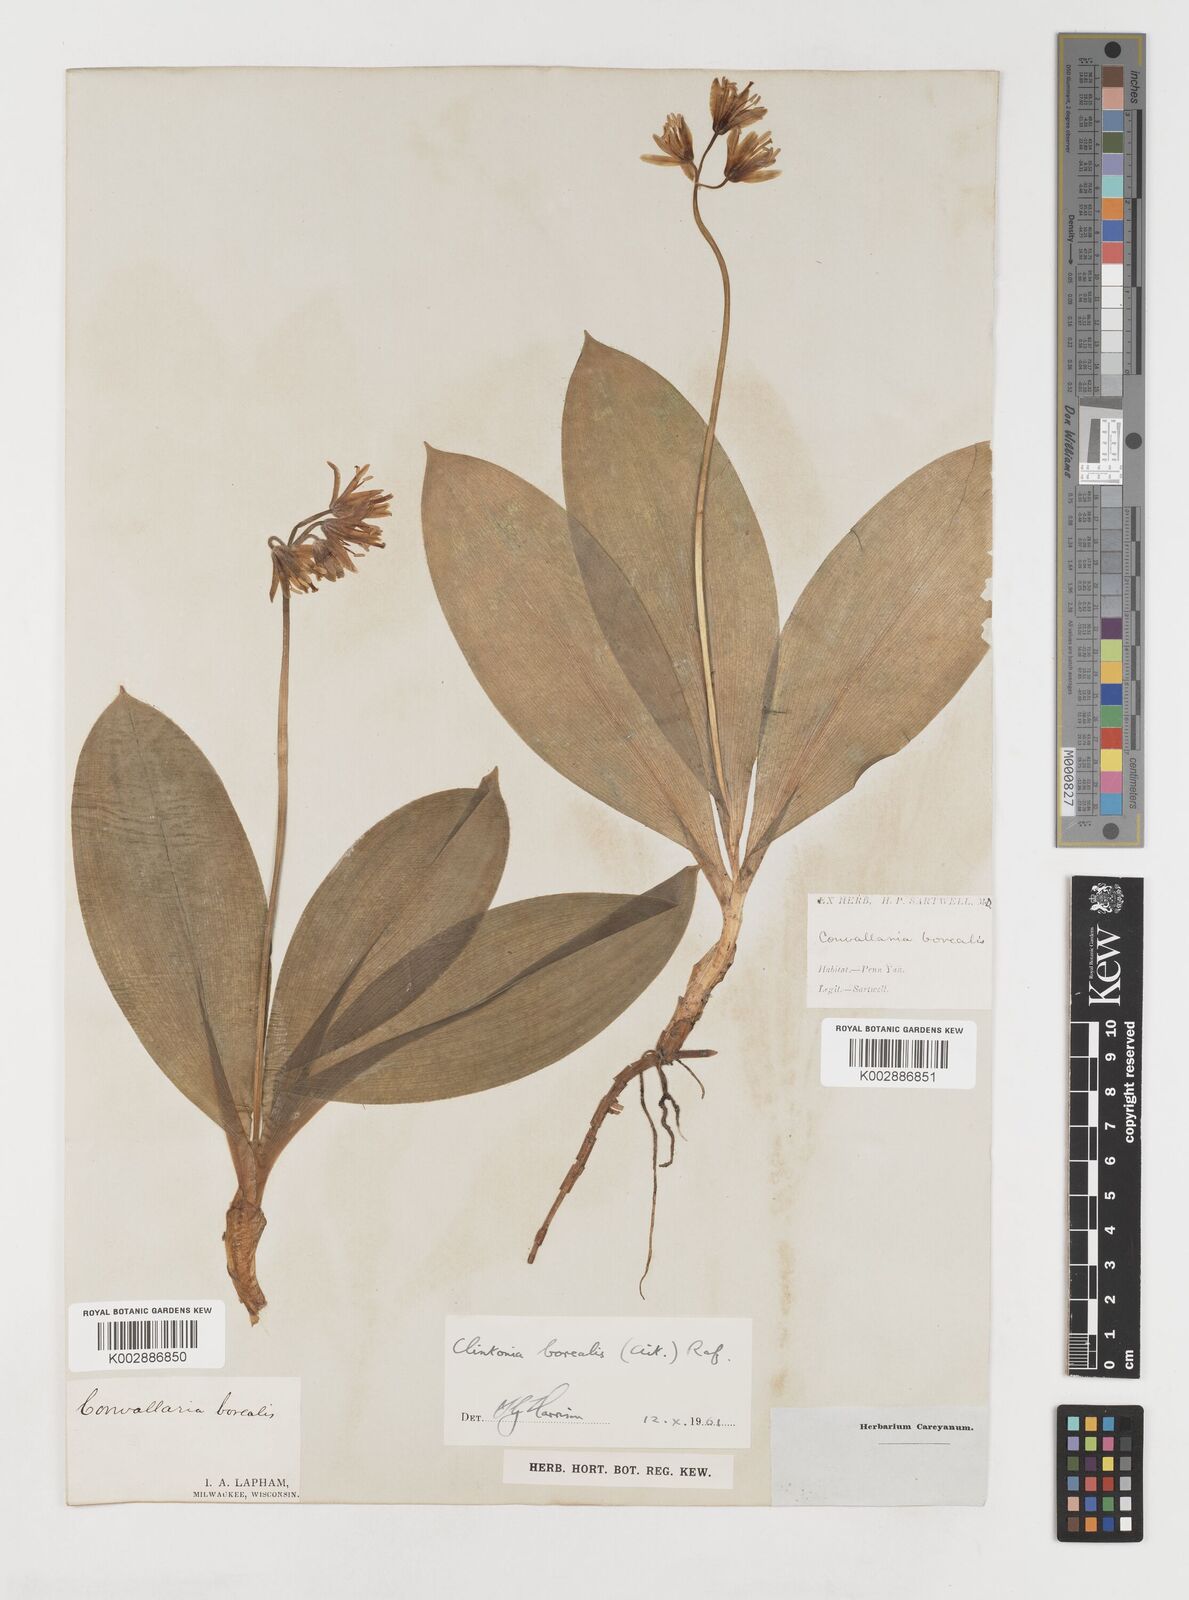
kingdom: Plantae
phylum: Tracheophyta
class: Liliopsida
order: Liliales
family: Liliaceae
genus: Clintonia
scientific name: Clintonia borealis
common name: Yellow clintonia
